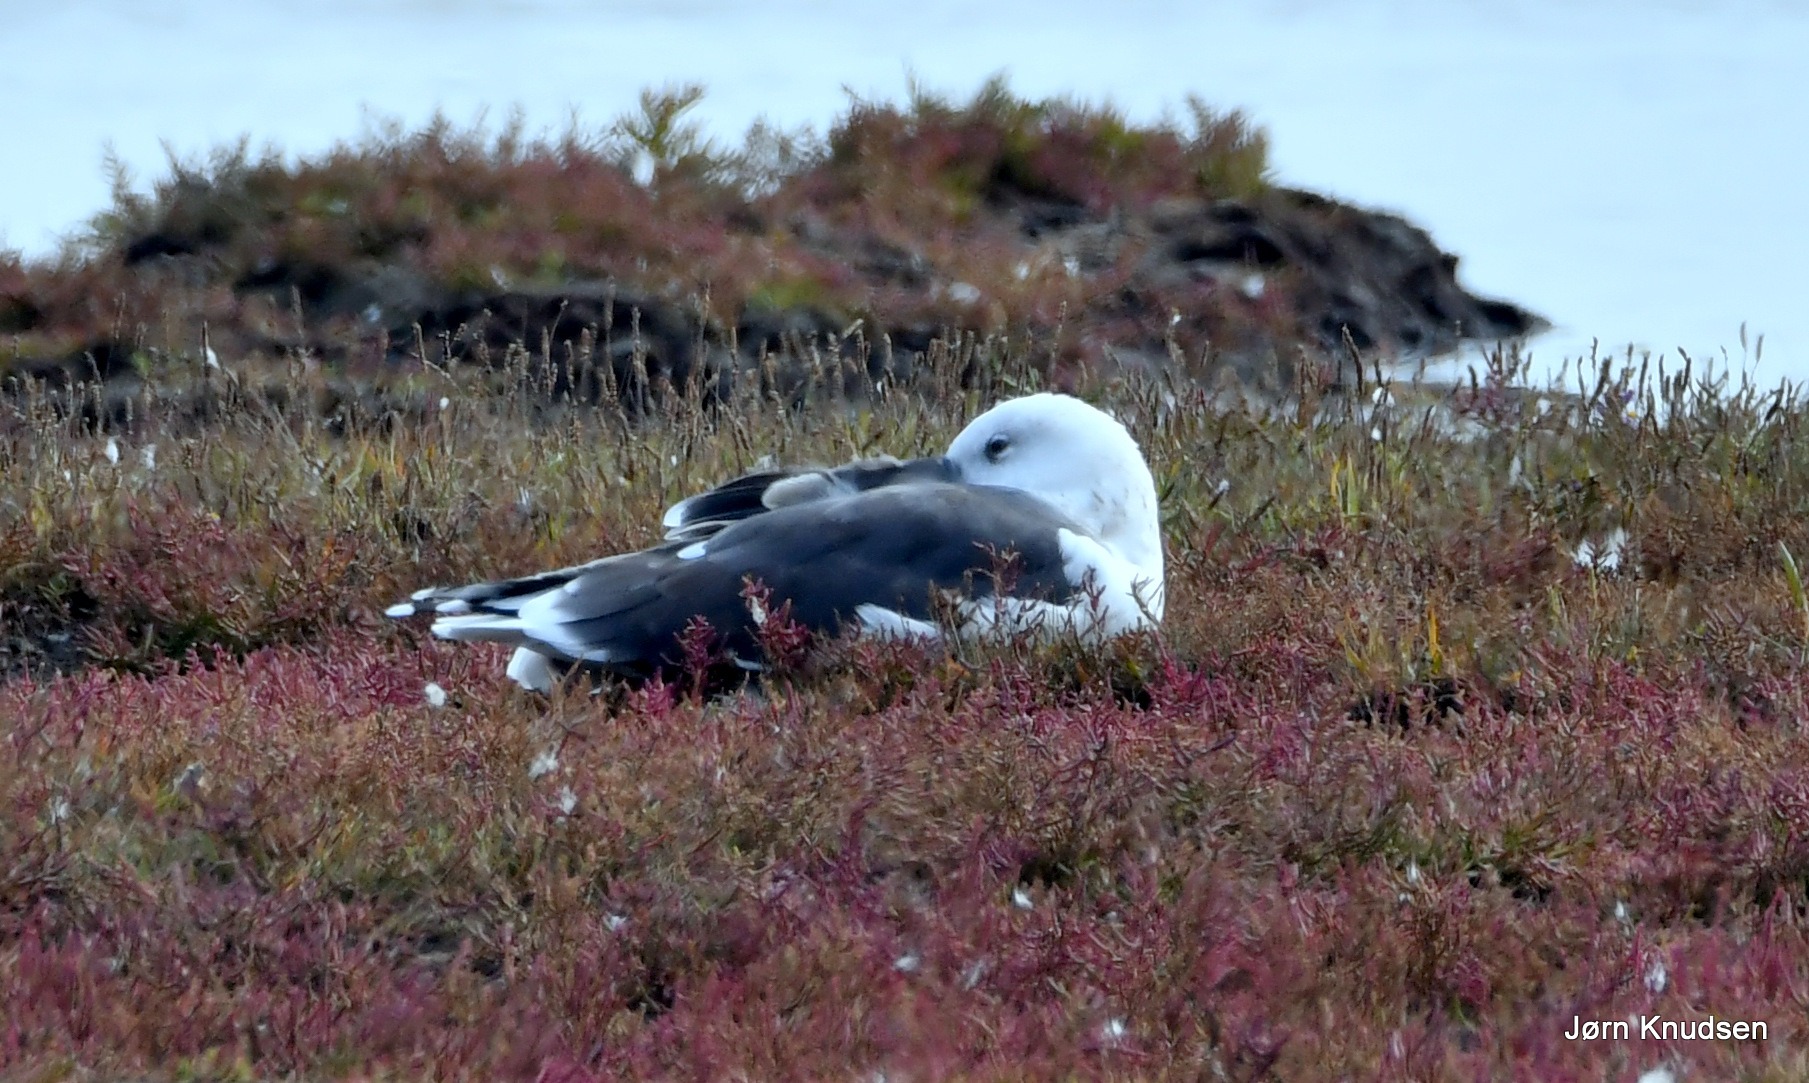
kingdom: Animalia
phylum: Chordata
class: Aves
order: Charadriiformes
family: Laridae
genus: Larus
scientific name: Larus marinus
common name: Svartbag
